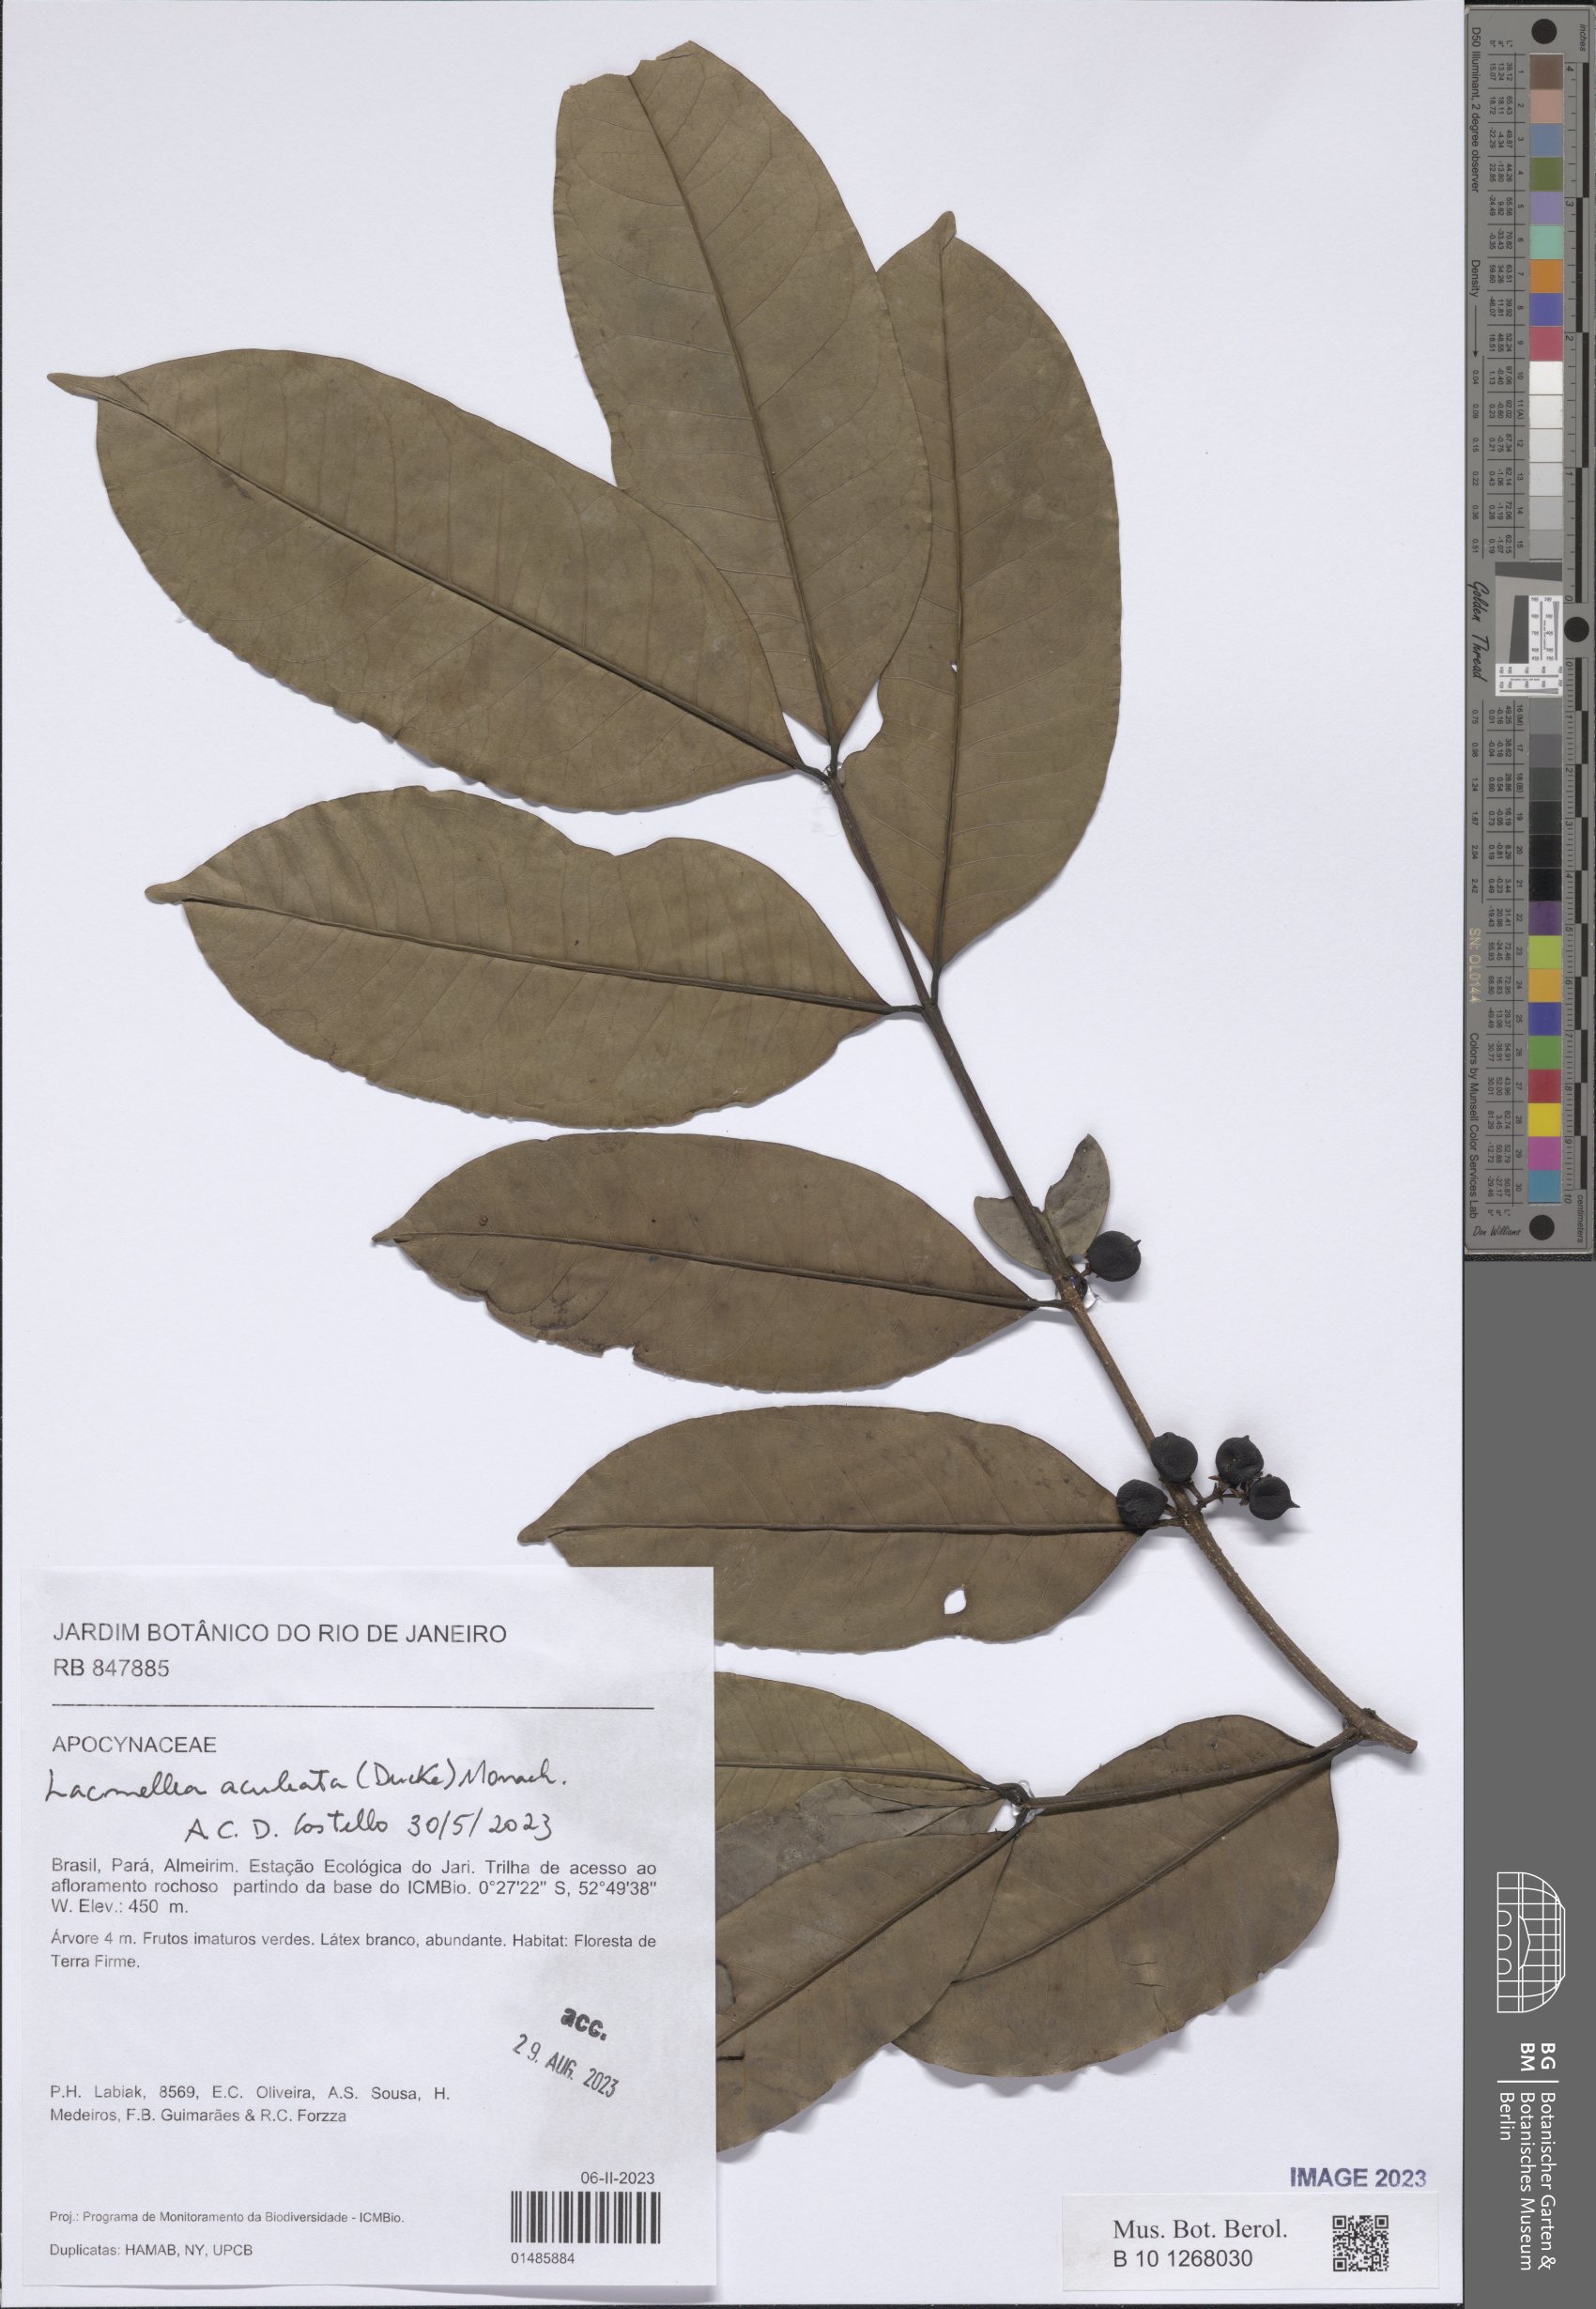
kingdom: Plantae
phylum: Tracheophyta
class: Magnoliopsida
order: Gentianales
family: Apocynaceae
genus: Lacmellea
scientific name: Lacmellea aculeata
